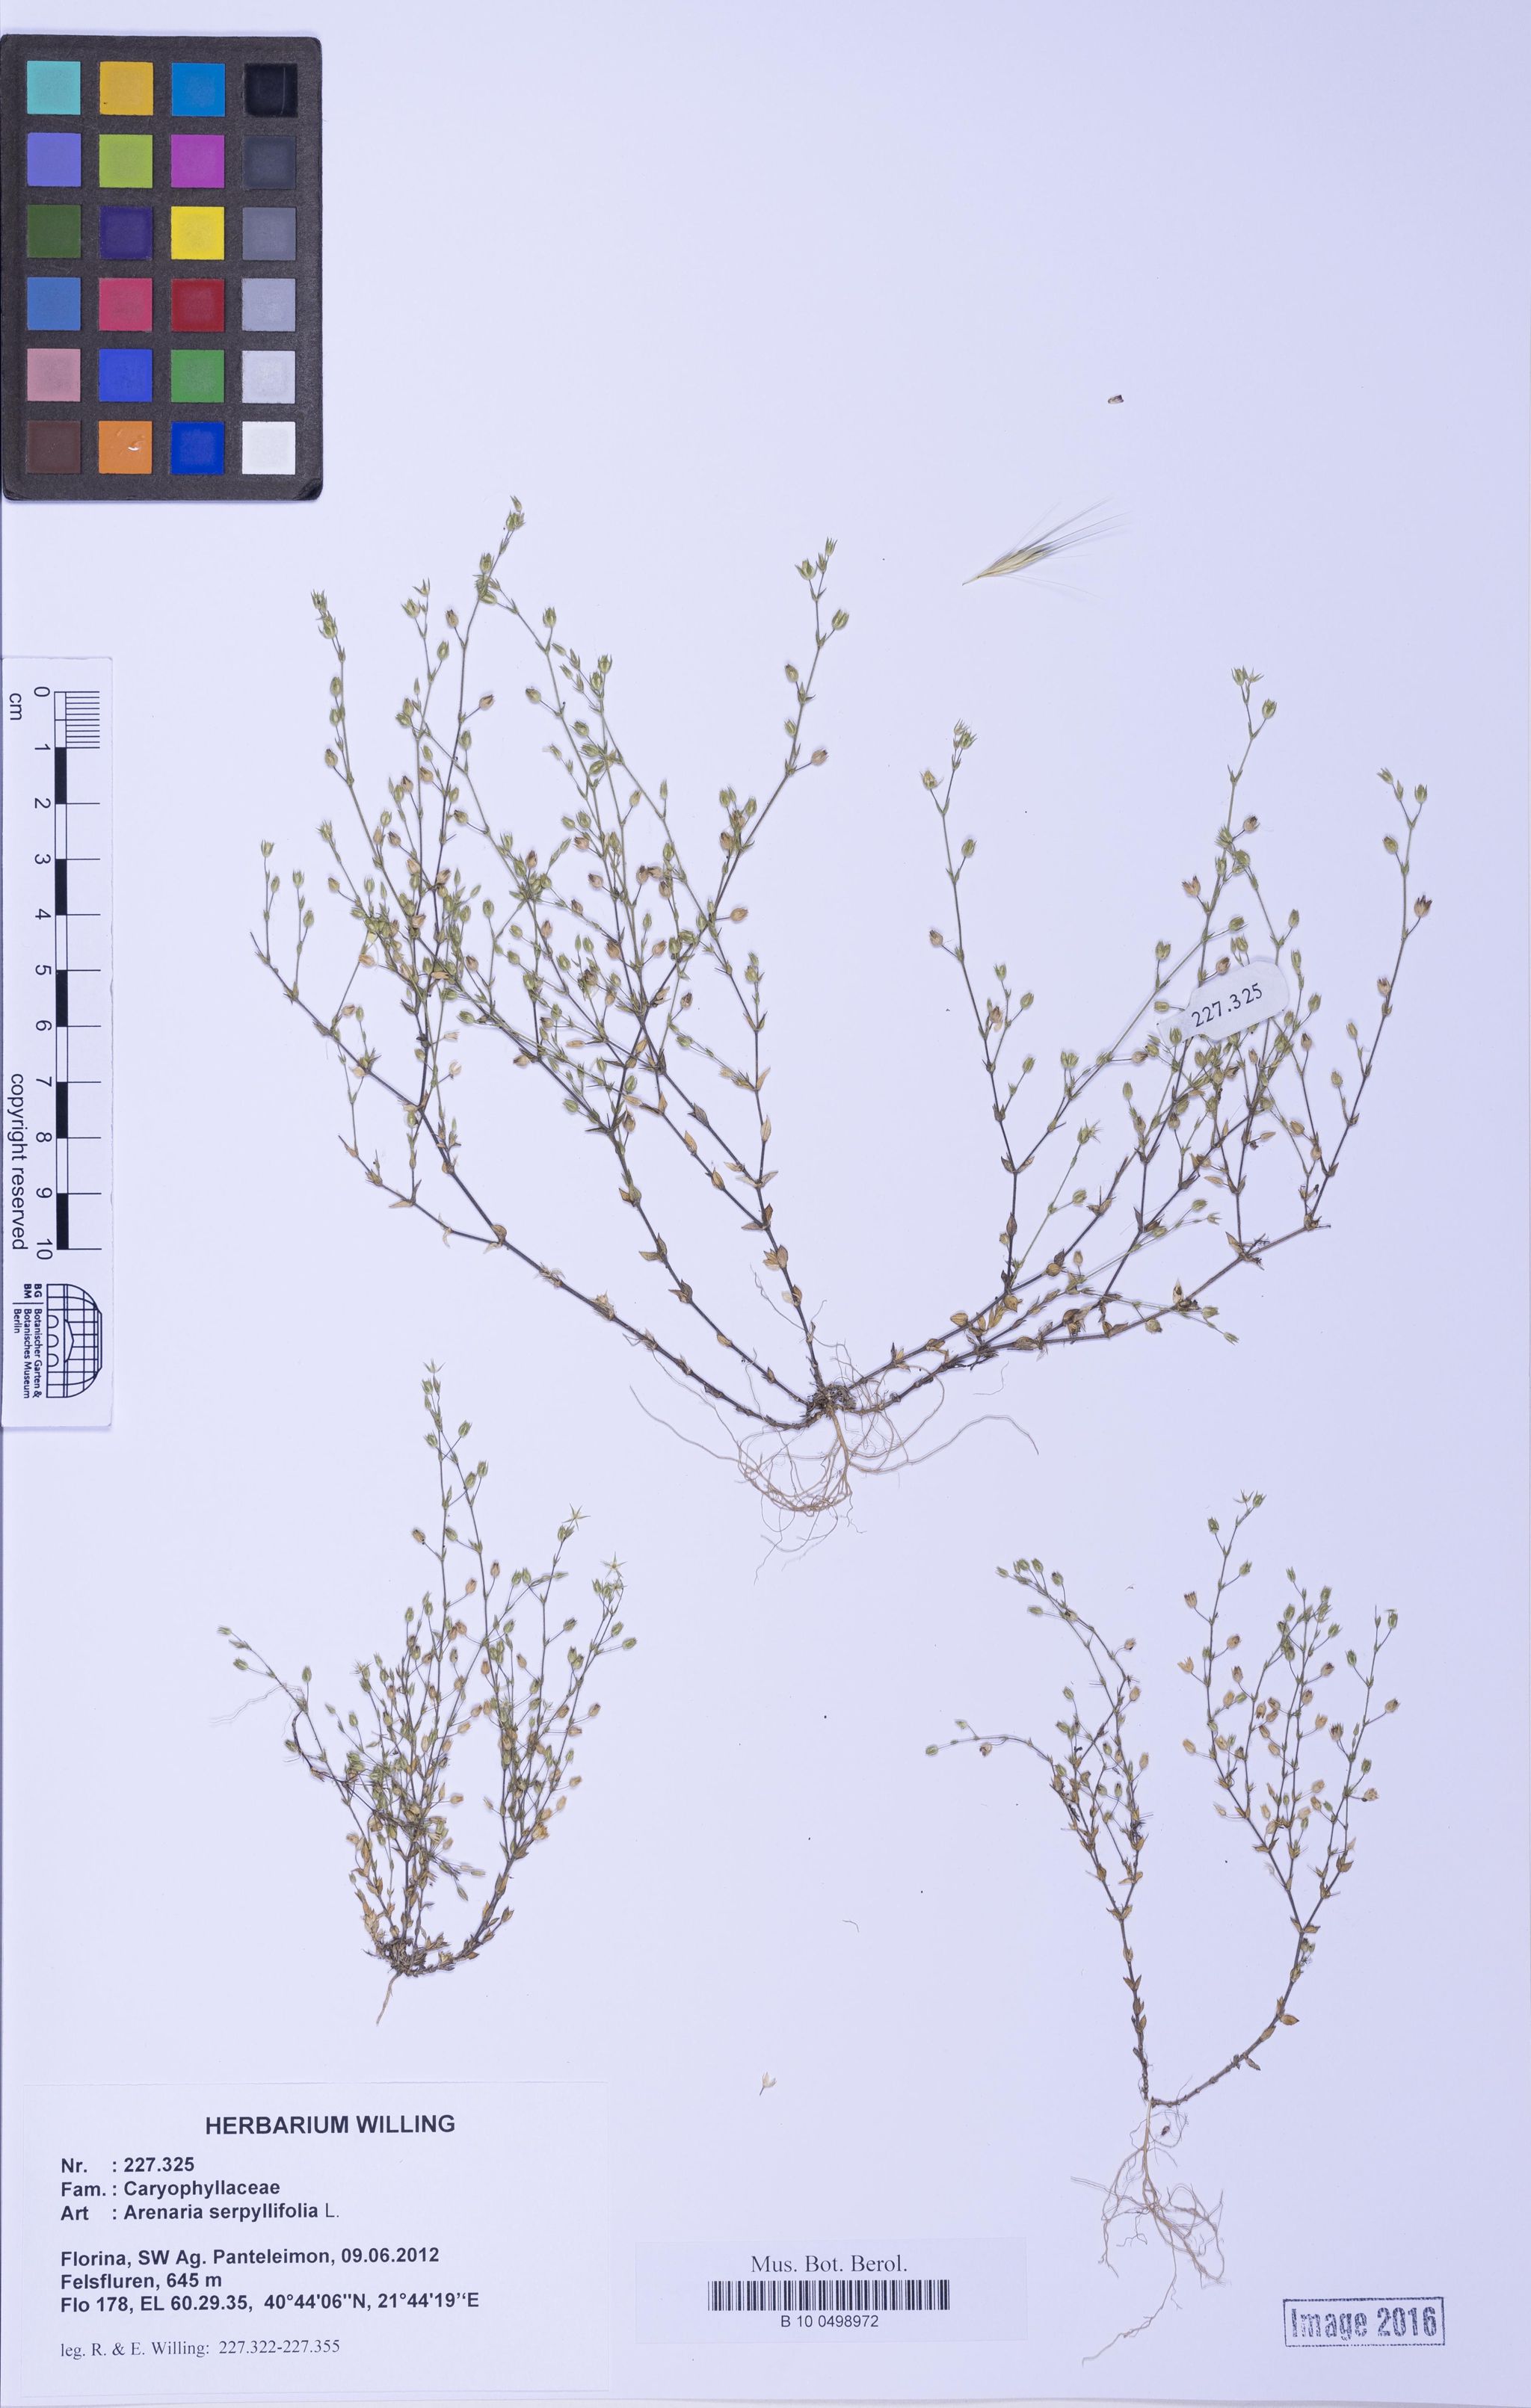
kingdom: Plantae
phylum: Tracheophyta
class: Magnoliopsida
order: Caryophyllales
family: Caryophyllaceae
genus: Arenaria
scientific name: Arenaria serpyllifolia
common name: Thyme-leaved sandwort
